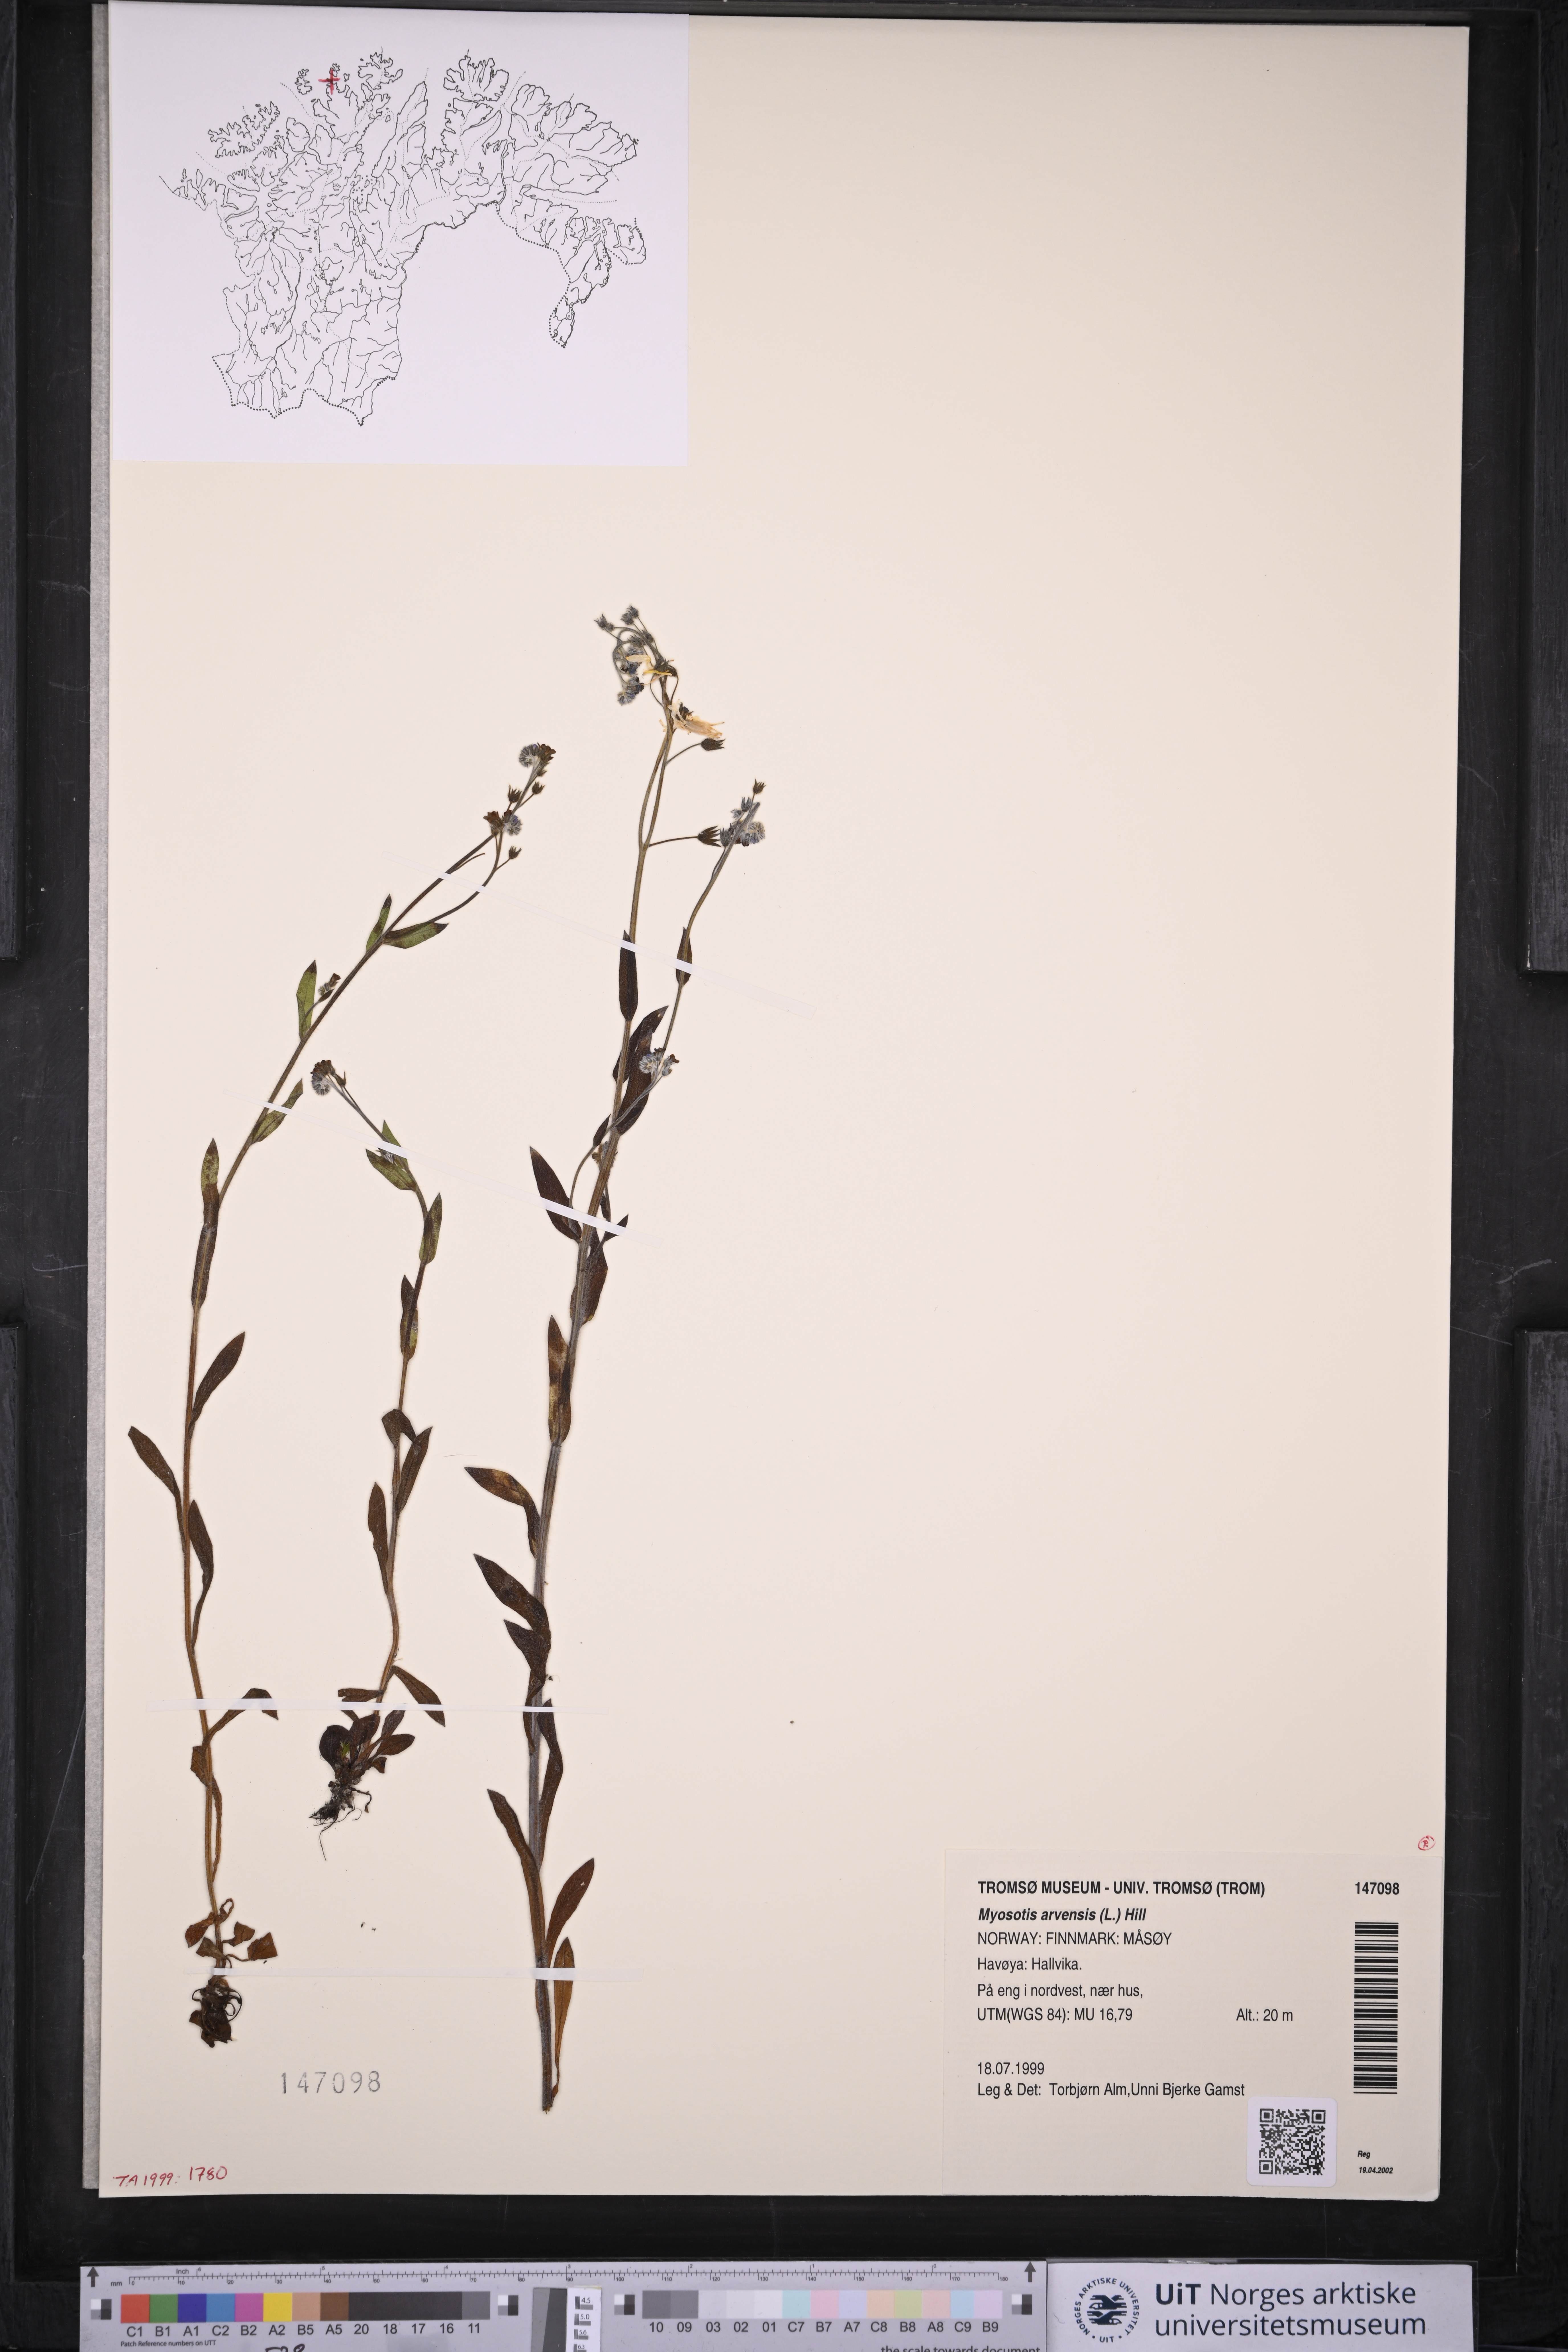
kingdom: Plantae
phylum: Tracheophyta
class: Magnoliopsida
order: Boraginales
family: Boraginaceae
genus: Myosotis
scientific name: Myosotis arvensis
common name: Field forget-me-not
